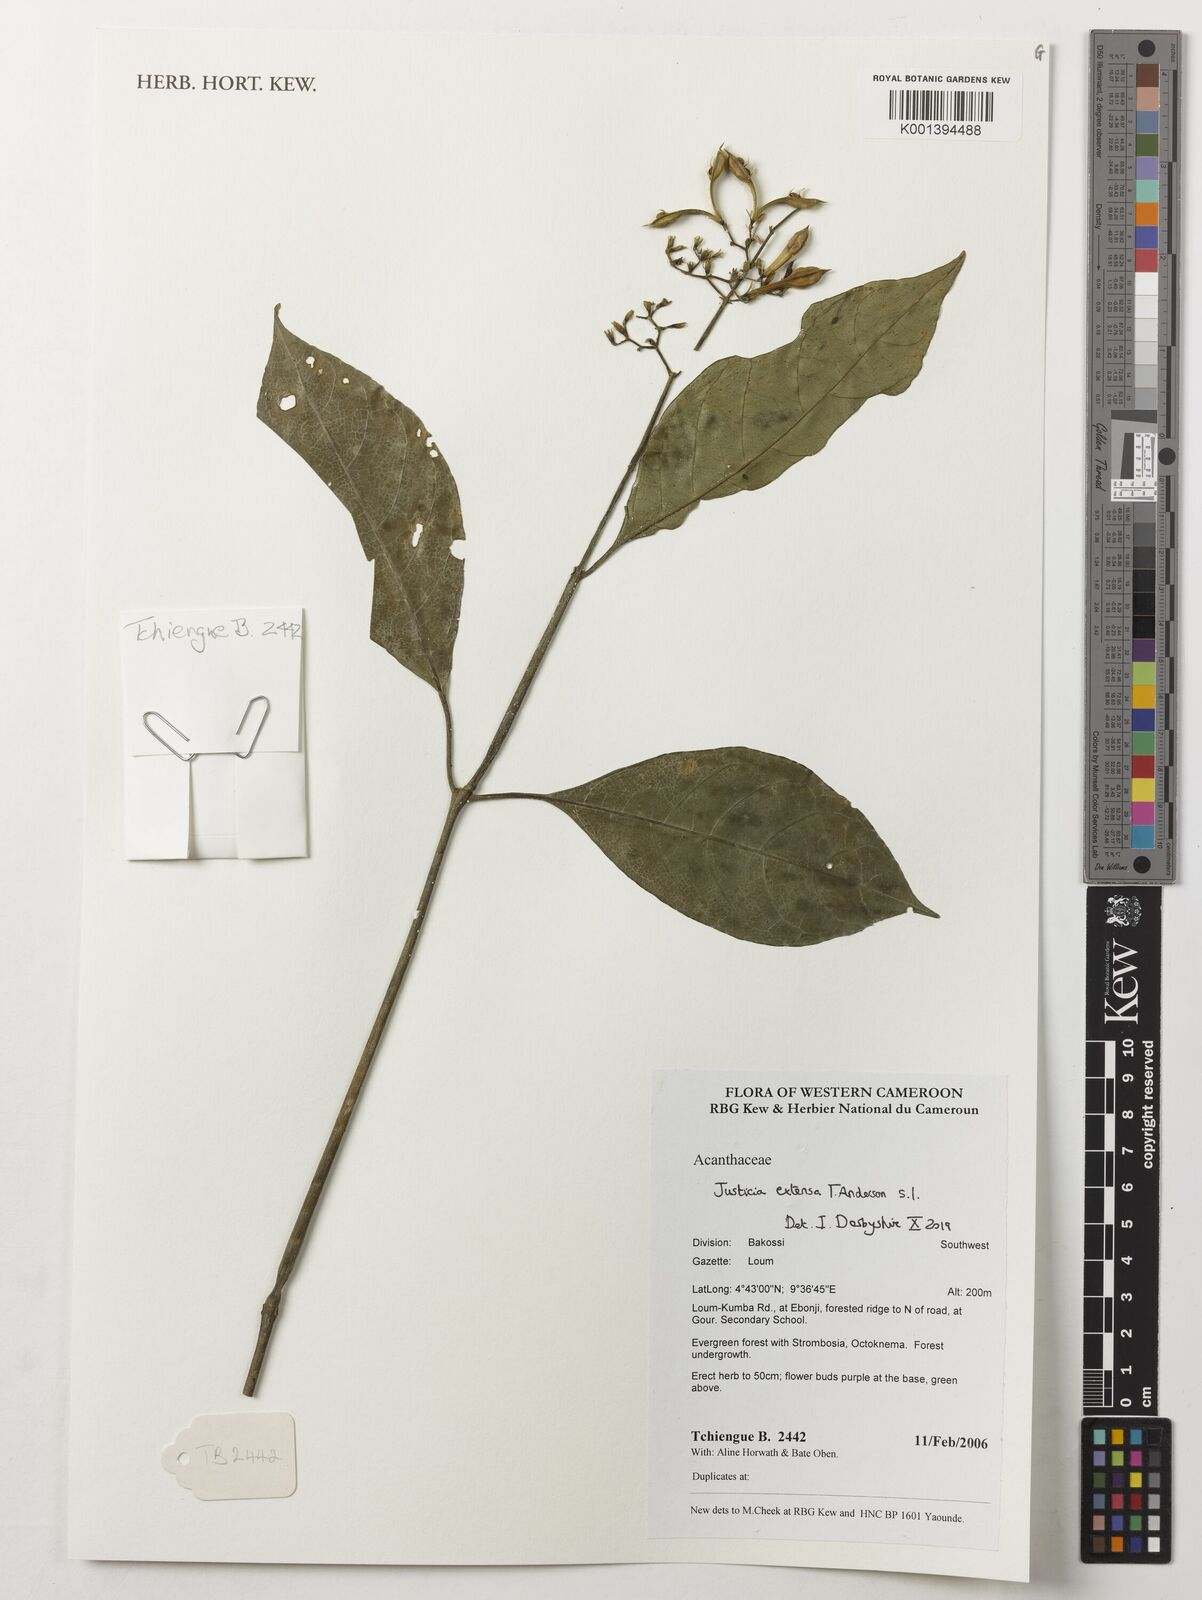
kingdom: Plantae
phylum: Tracheophyta
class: Magnoliopsida
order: Lamiales
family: Acanthaceae
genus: Justicia
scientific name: Justicia extensa
